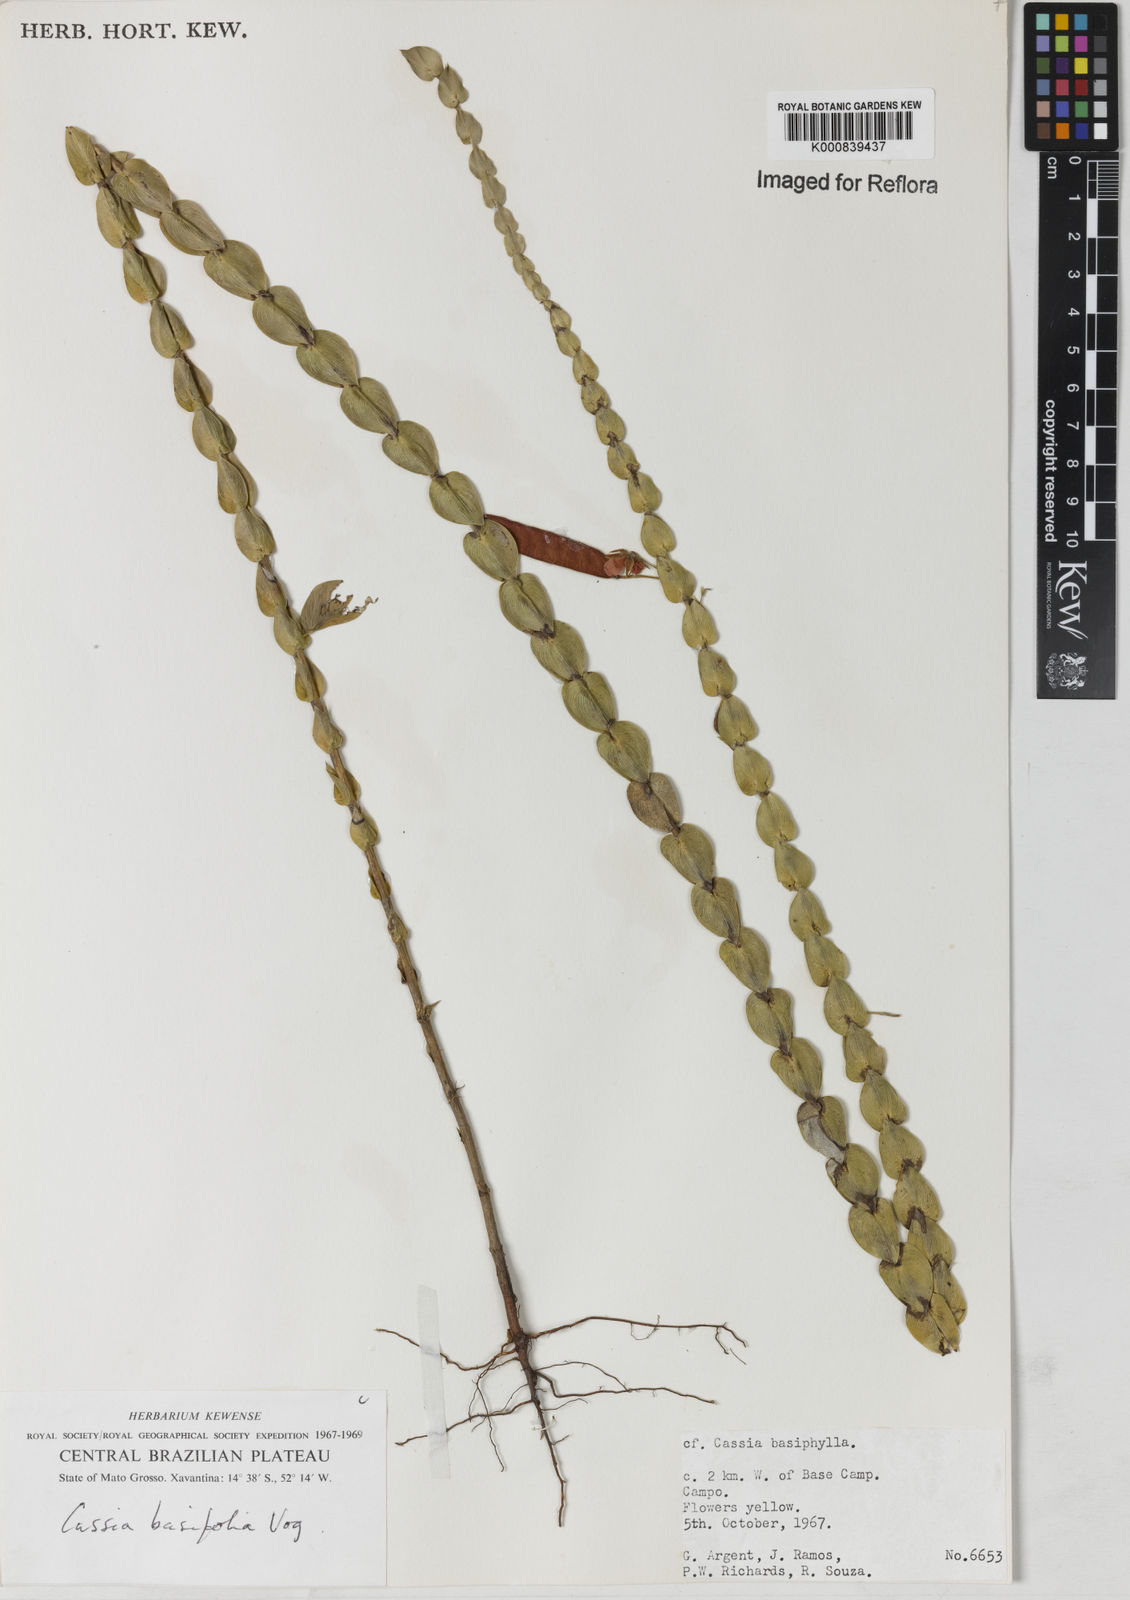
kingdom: Plantae
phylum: Tracheophyta
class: Magnoliopsida
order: Fabales
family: Fabaceae
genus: Chamaecrista
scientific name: Chamaecrista basifolia
